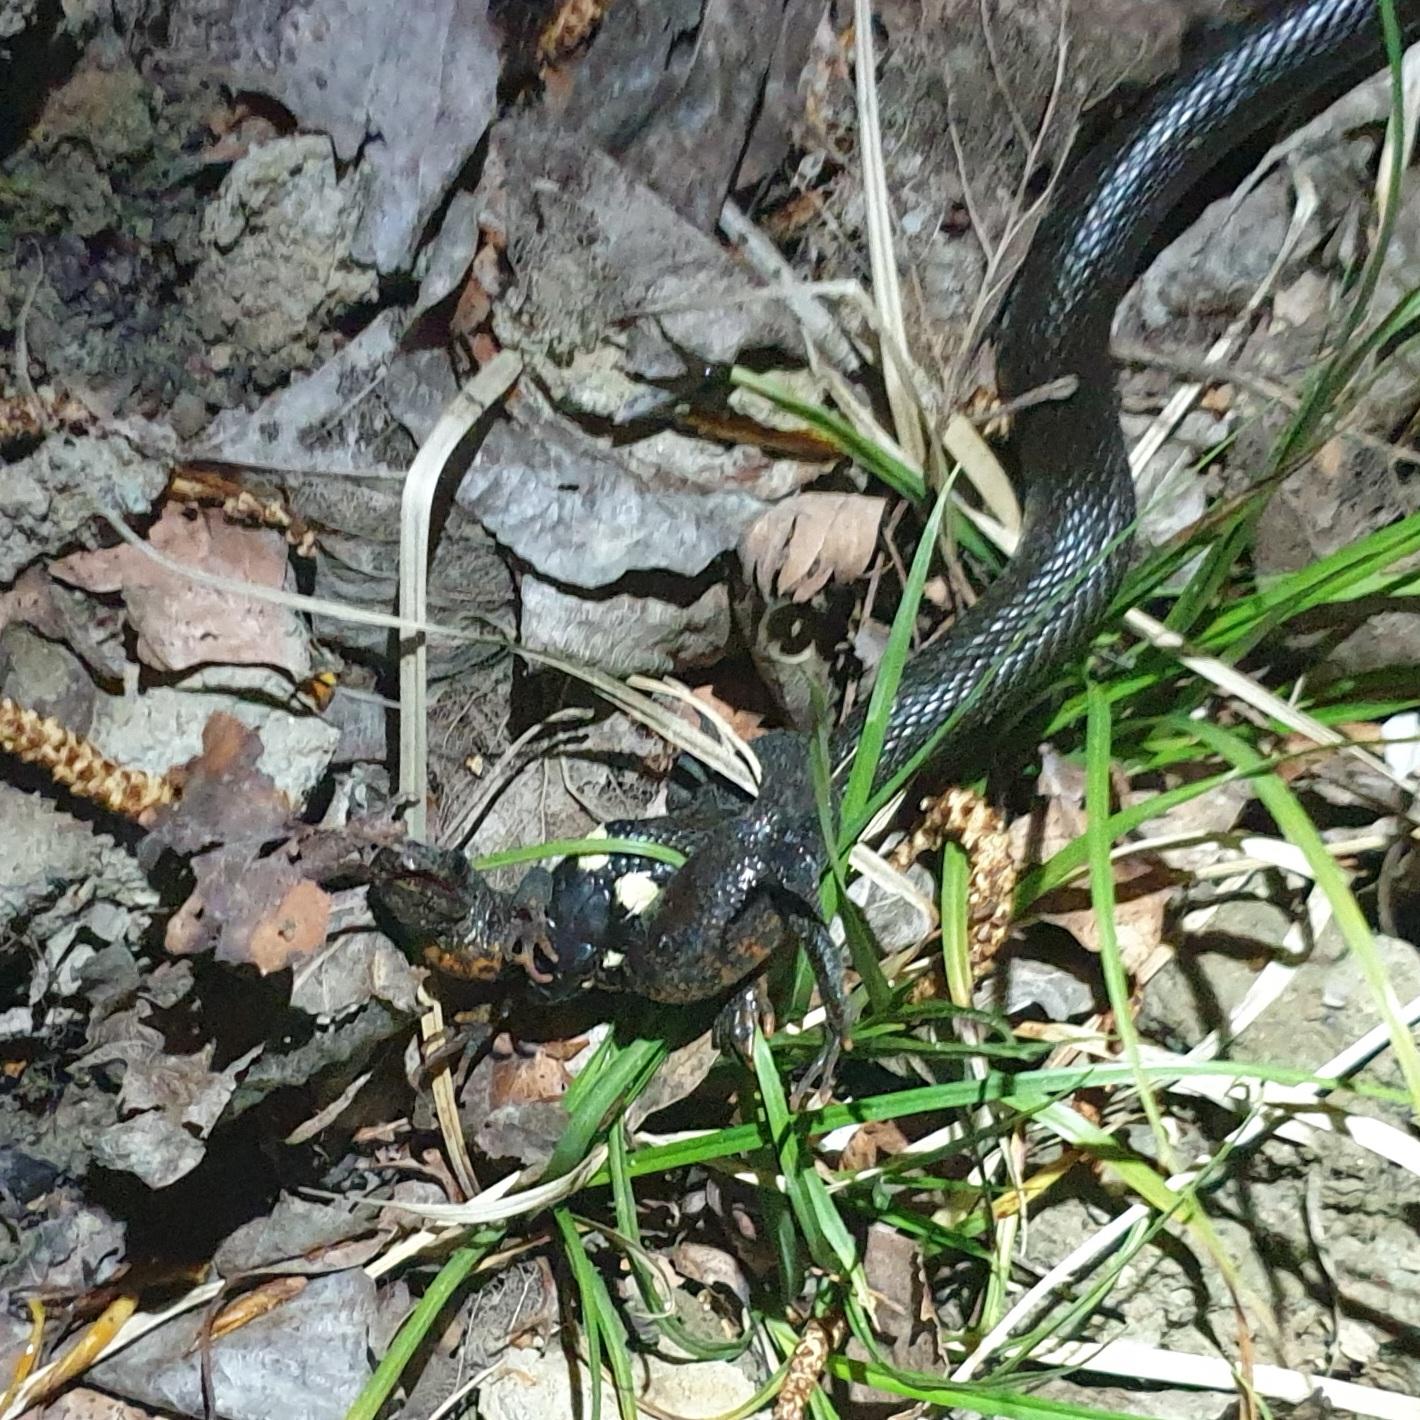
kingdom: Animalia
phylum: Chordata
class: Squamata
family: Colubridae
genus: Natrix
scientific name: Natrix natrix
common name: Snog
